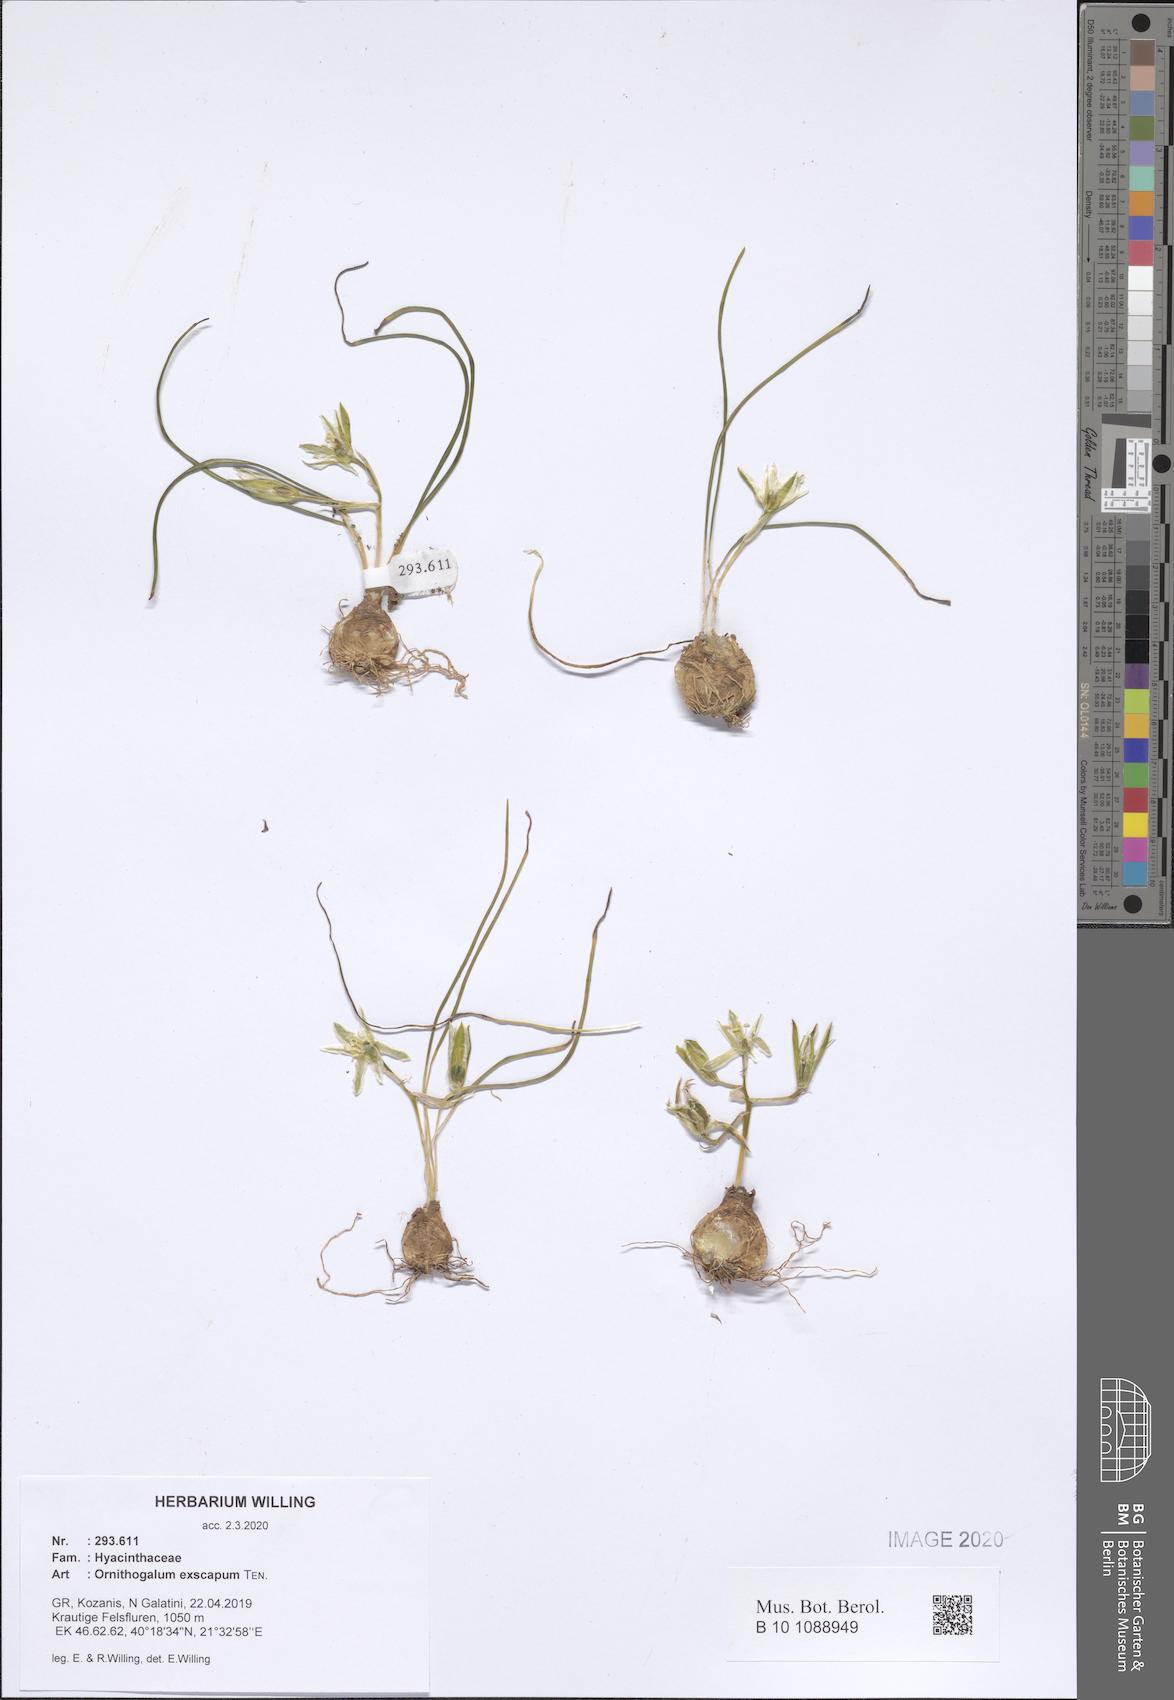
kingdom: Plantae
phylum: Tracheophyta
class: Liliopsida
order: Asparagales
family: Asparagaceae
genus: Ornithogalum
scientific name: Ornithogalum exscapum
